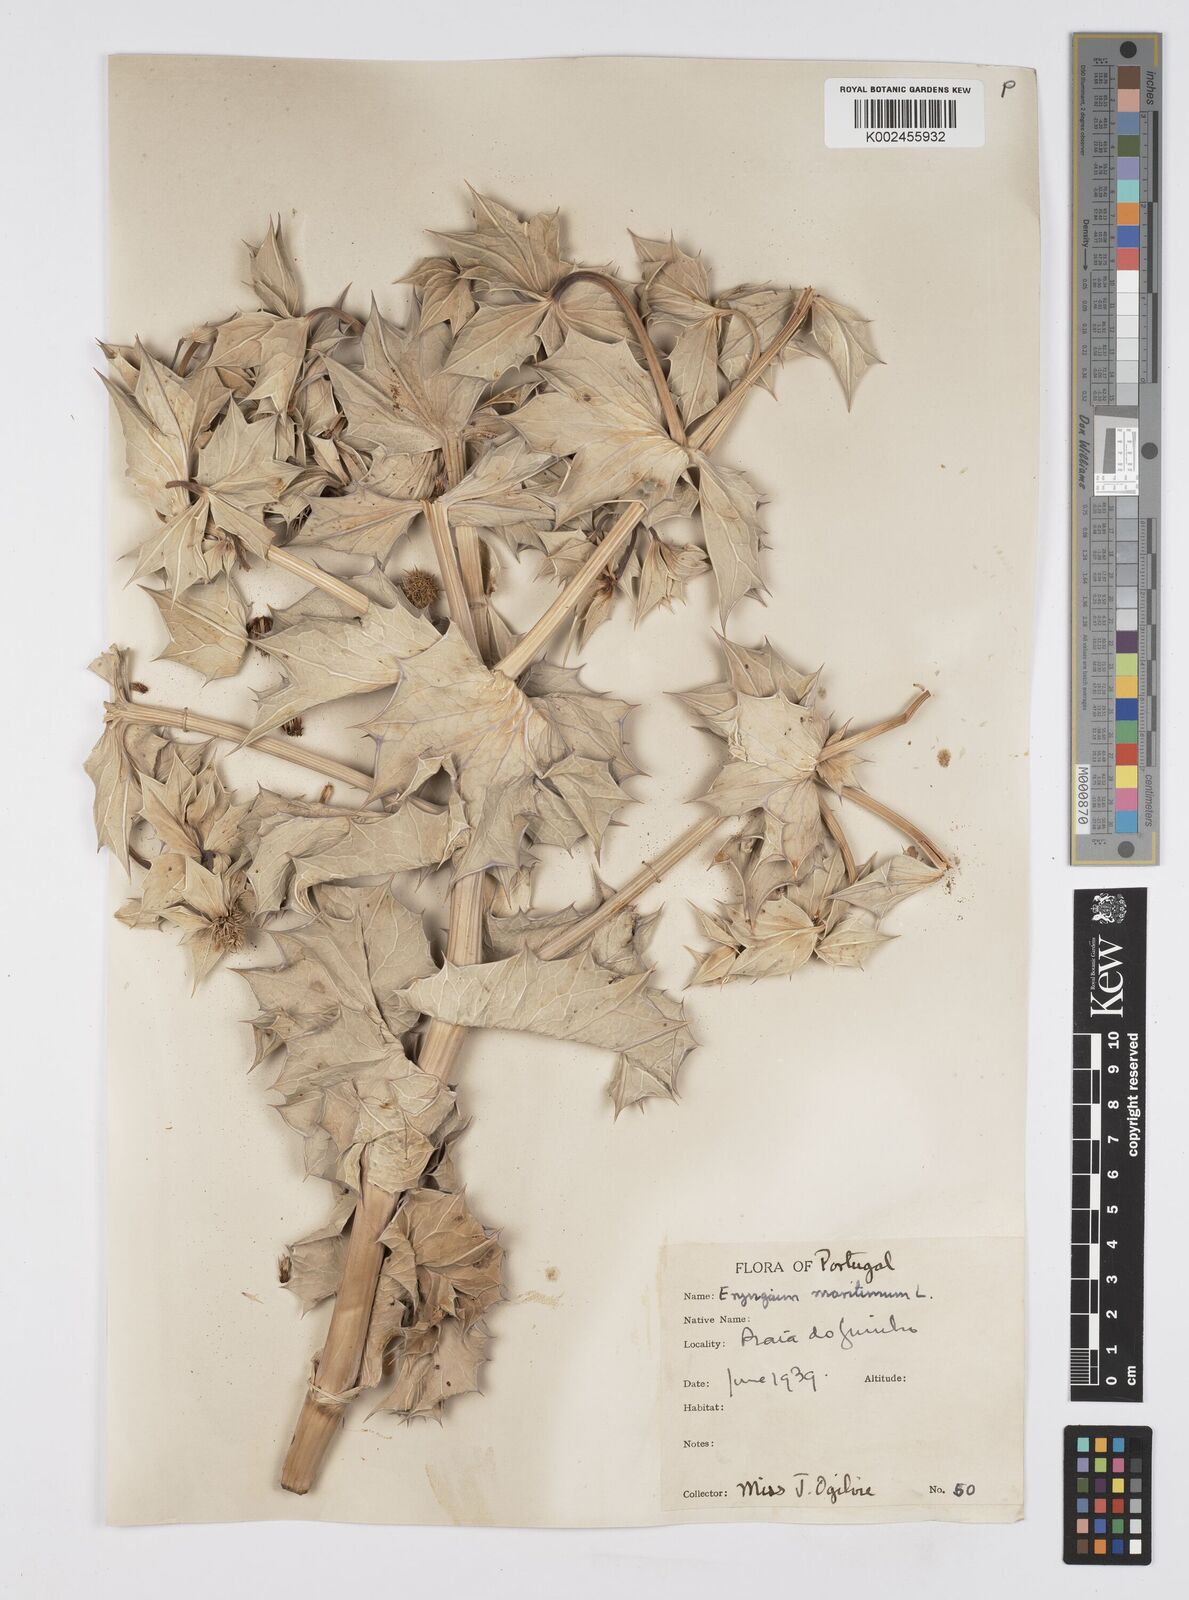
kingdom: Plantae
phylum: Tracheophyta
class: Magnoliopsida
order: Apiales
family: Apiaceae
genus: Eryngium
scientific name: Eryngium maritimum
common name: Sea-holly
